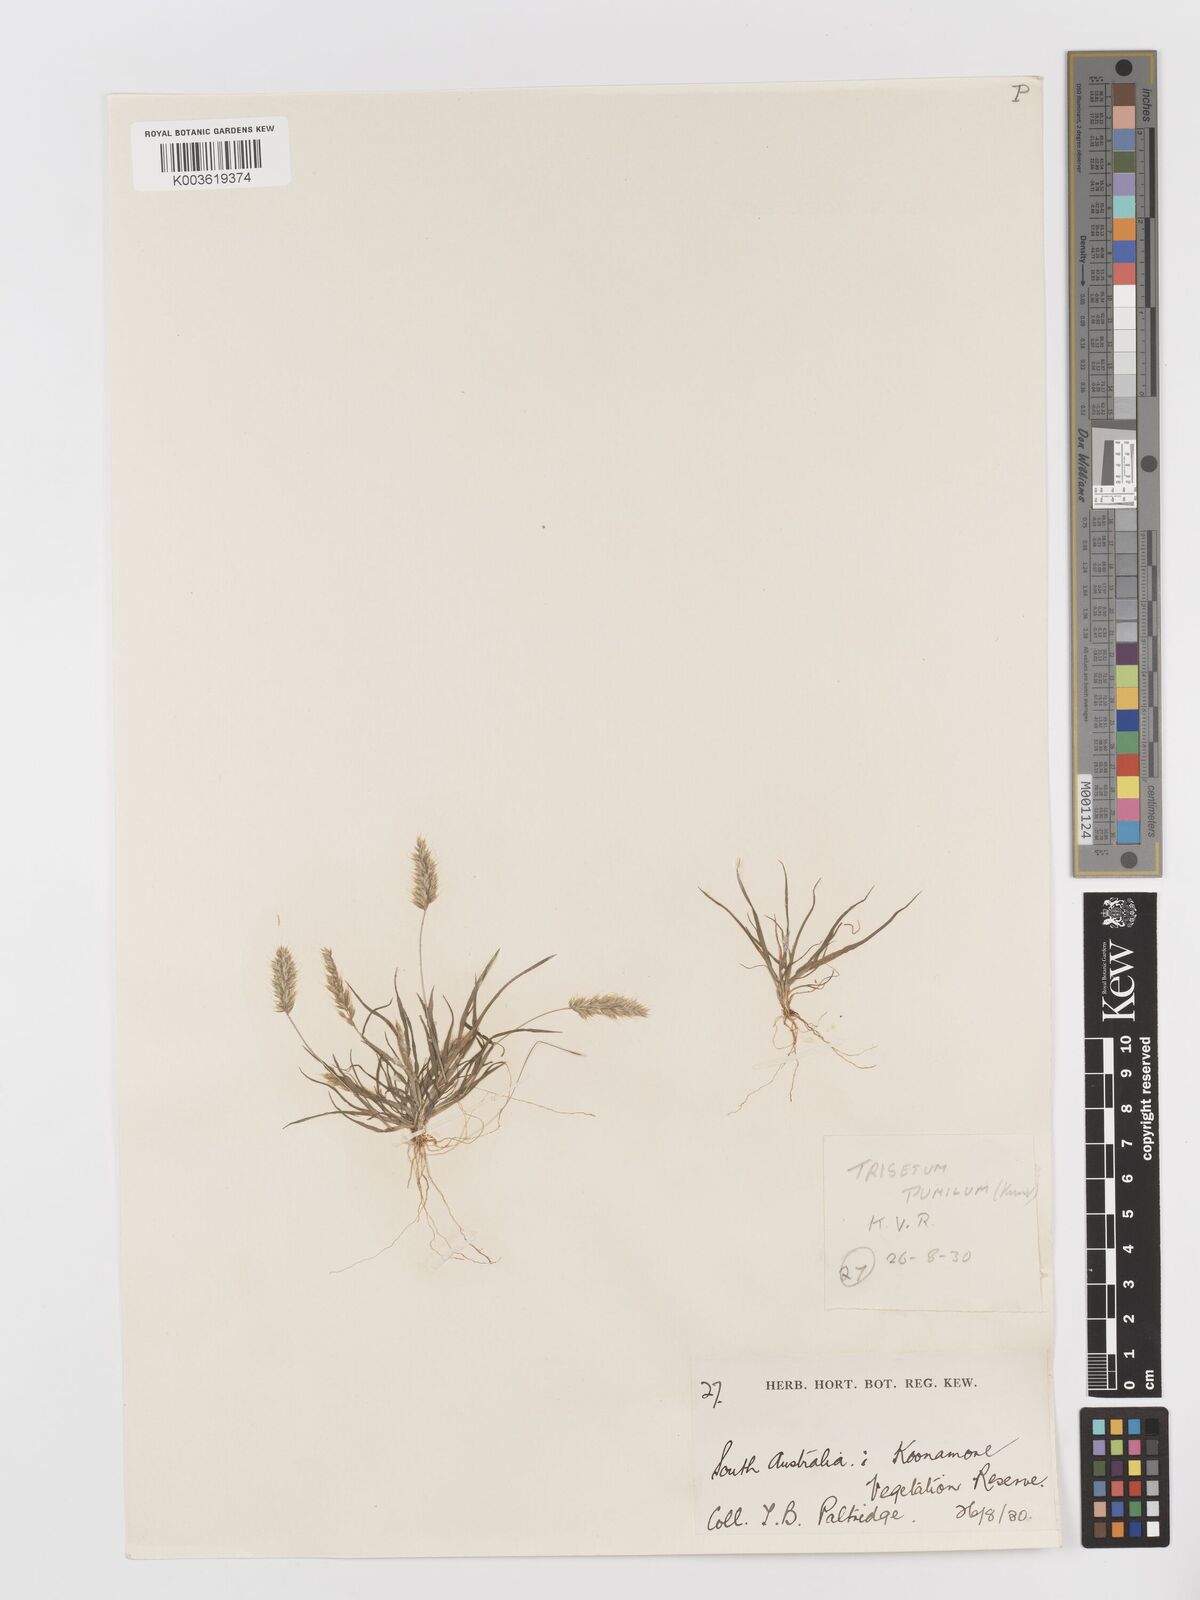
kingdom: Plantae
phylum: Tracheophyta
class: Liliopsida
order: Poales
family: Poaceae
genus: Rostraria
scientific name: Rostraria pumila
